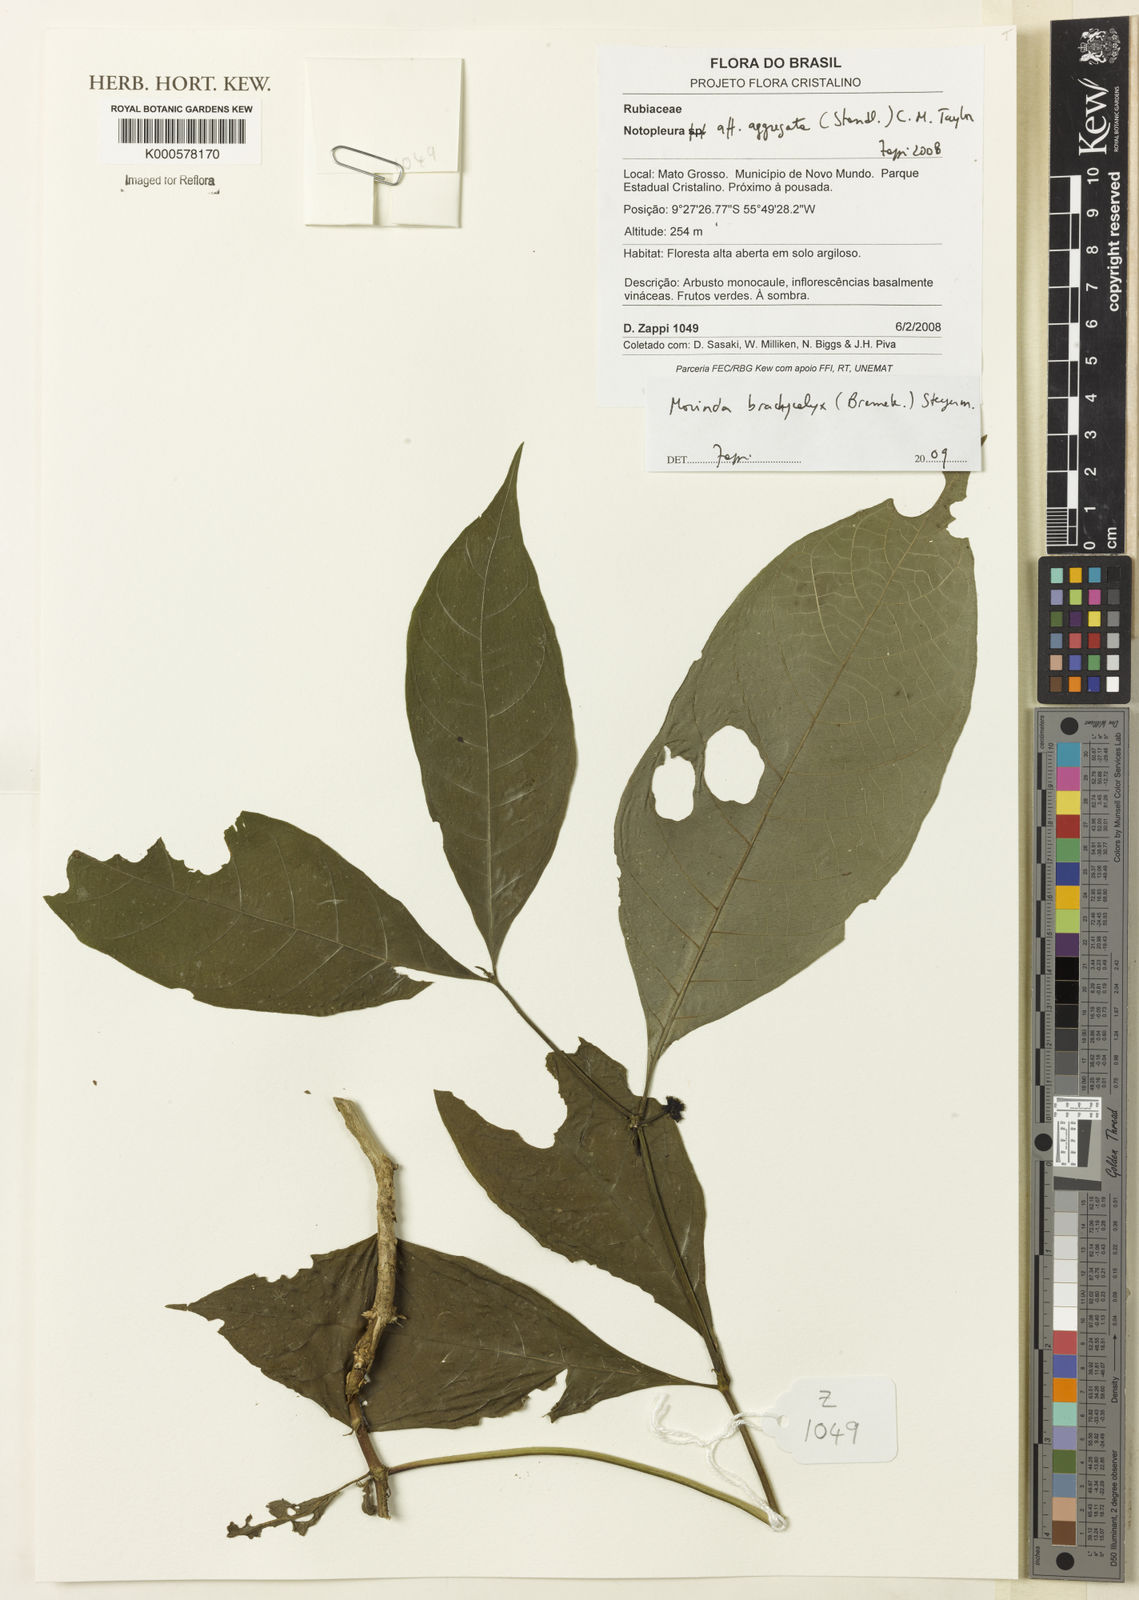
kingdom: Plantae
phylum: Tracheophyta
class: Magnoliopsida
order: Gentianales
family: Rubiaceae
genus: Appunia
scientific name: Appunia morindoides
